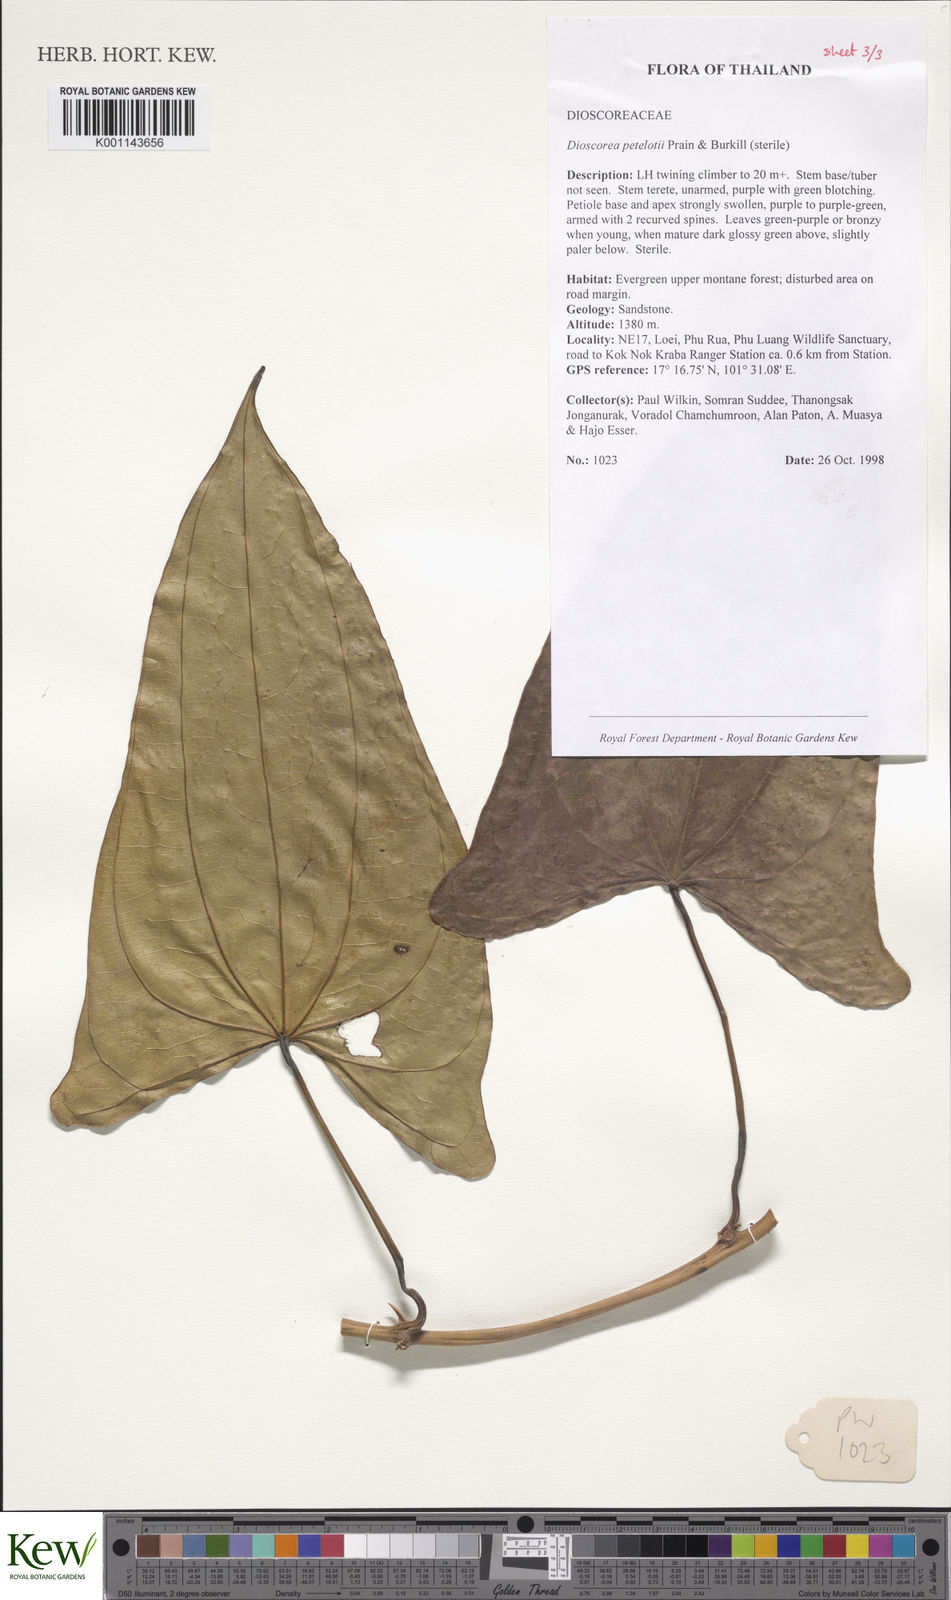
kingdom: Plantae
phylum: Tracheophyta
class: Liliopsida
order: Dioscoreales
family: Dioscoreaceae
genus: Dioscorea
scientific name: Dioscorea petelotii
